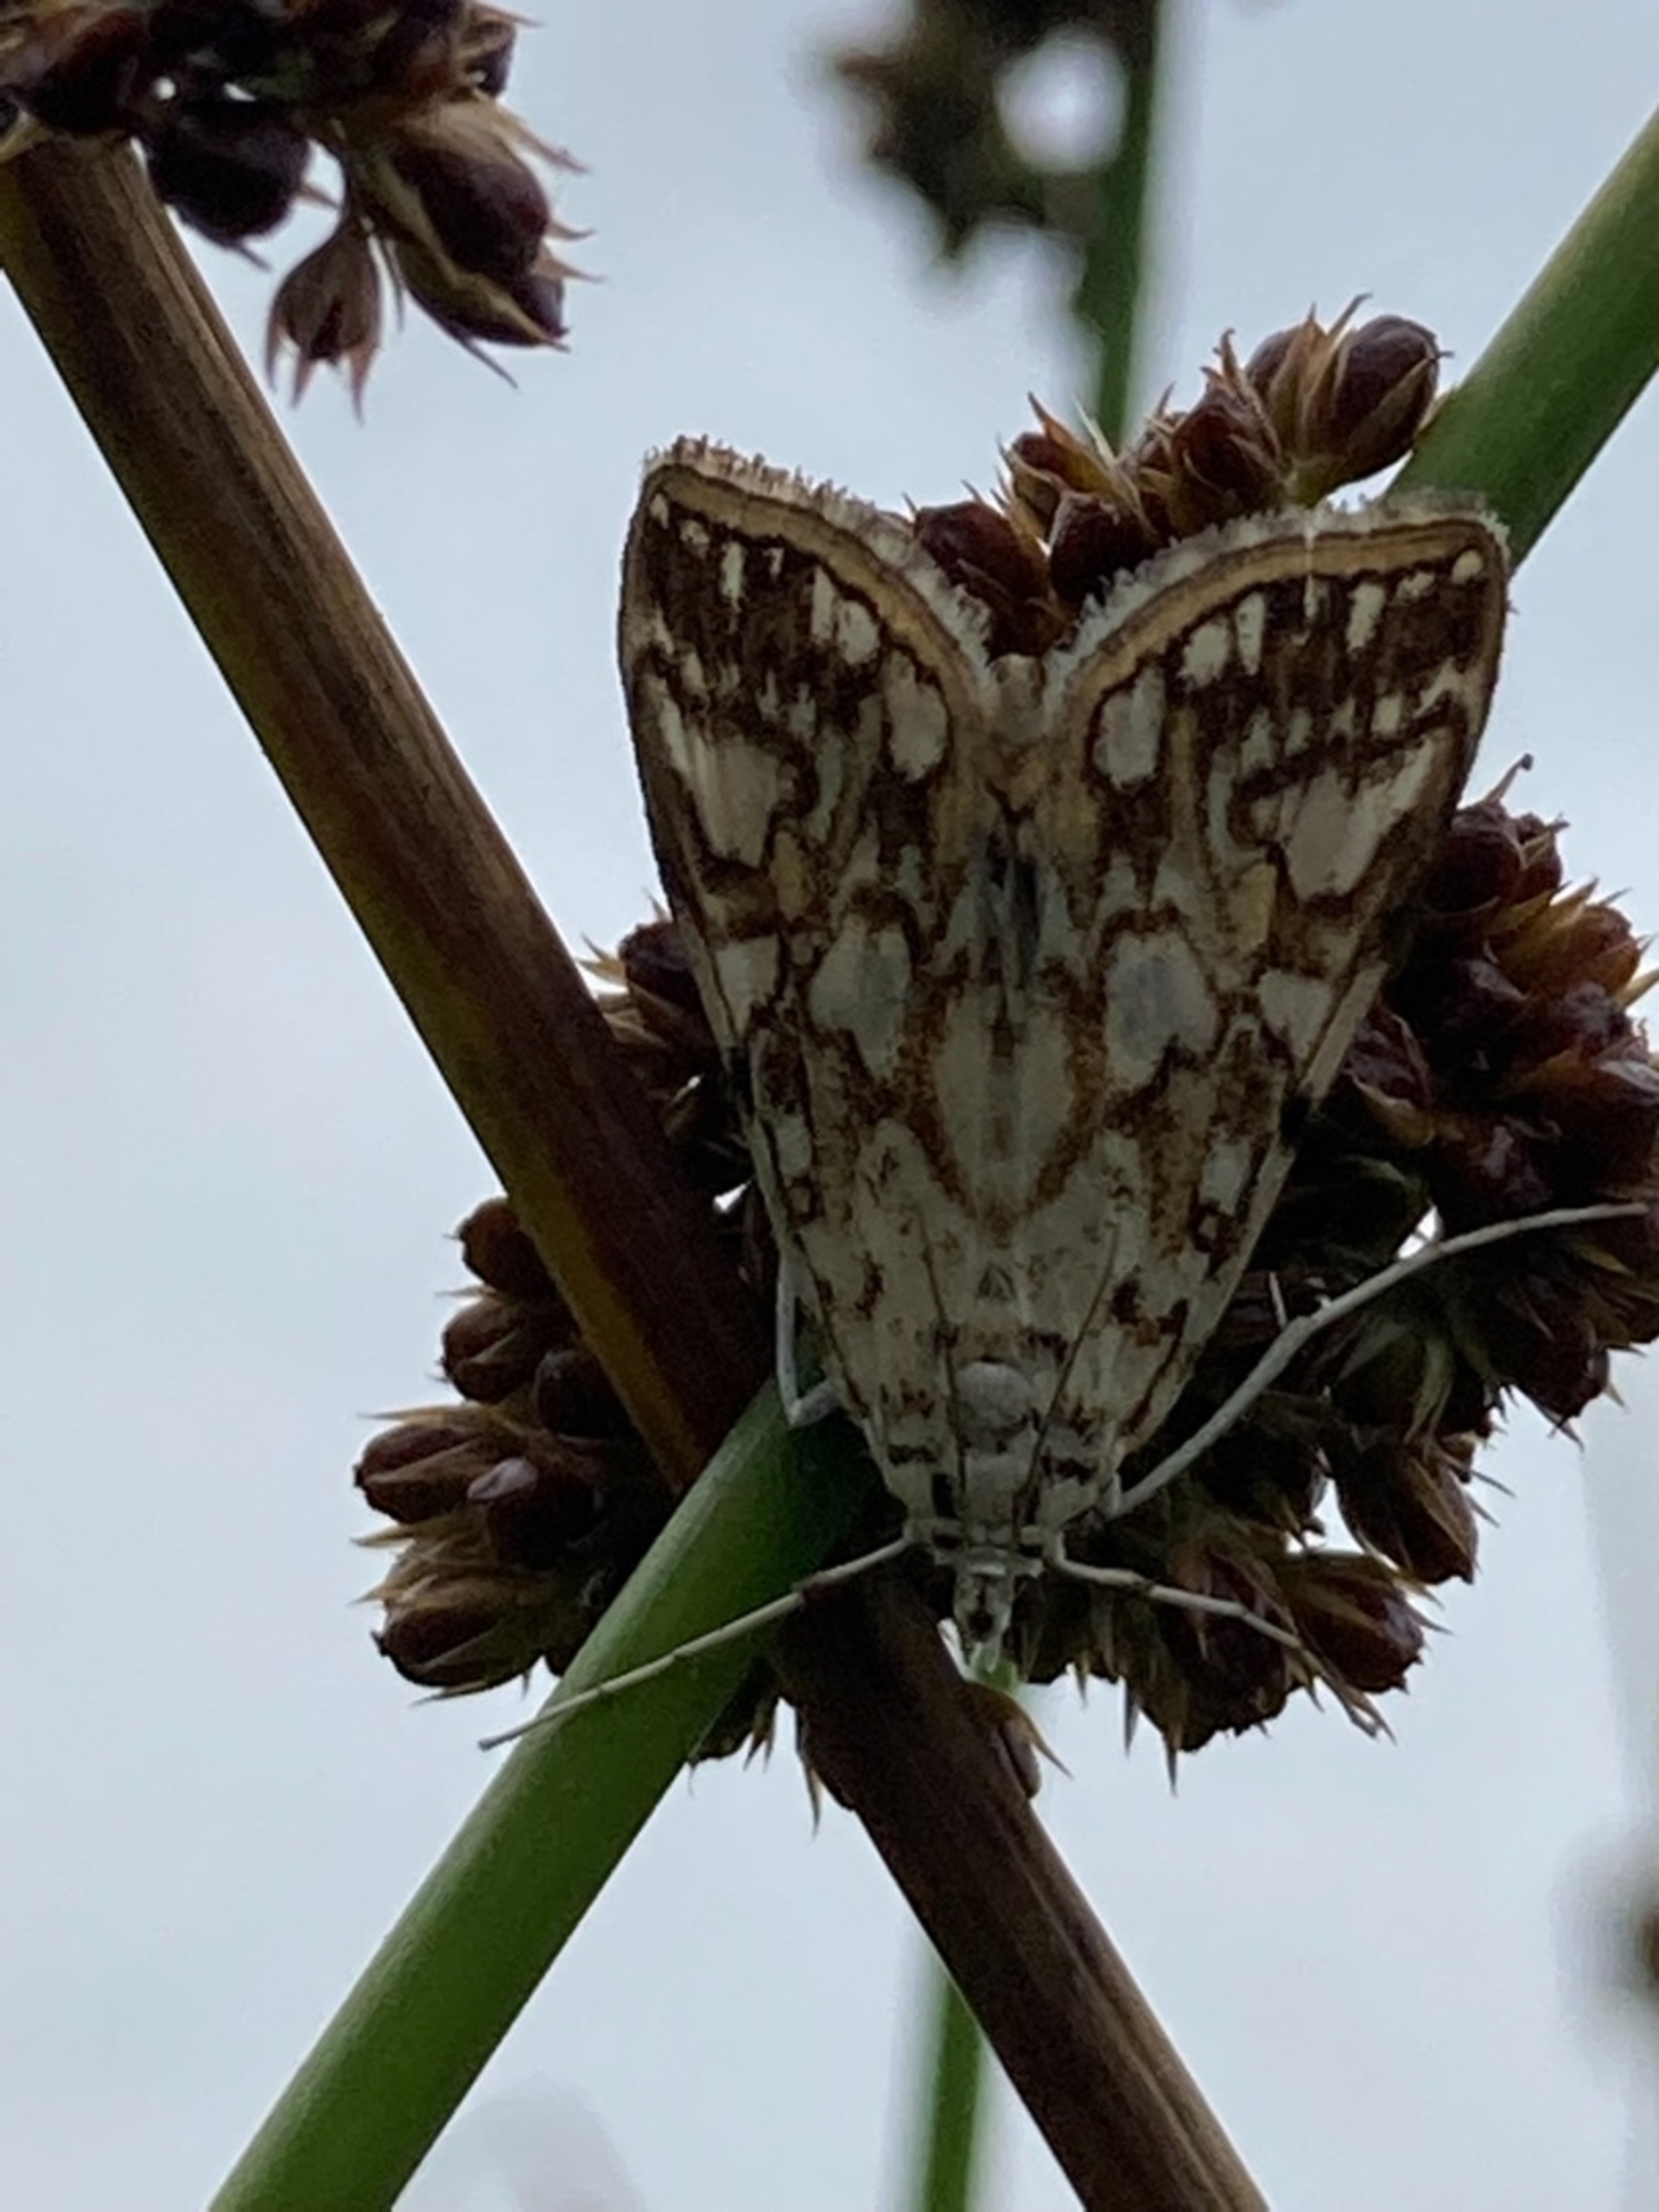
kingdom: Animalia
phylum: Arthropoda
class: Insecta
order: Lepidoptera
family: Crambidae
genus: Elophila
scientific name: Elophila nymphaeata
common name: Åkandehalvmøl
